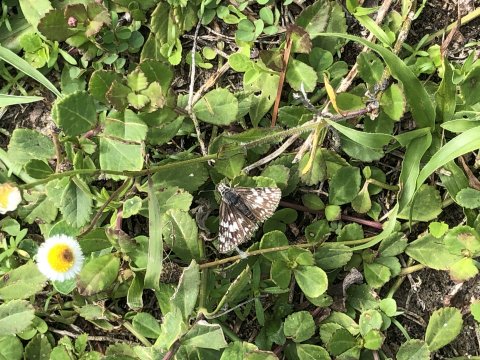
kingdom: Animalia
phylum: Arthropoda
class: Insecta
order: Lepidoptera
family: Pieridae
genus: Pontia
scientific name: Pontia protodice
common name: Checkered White
